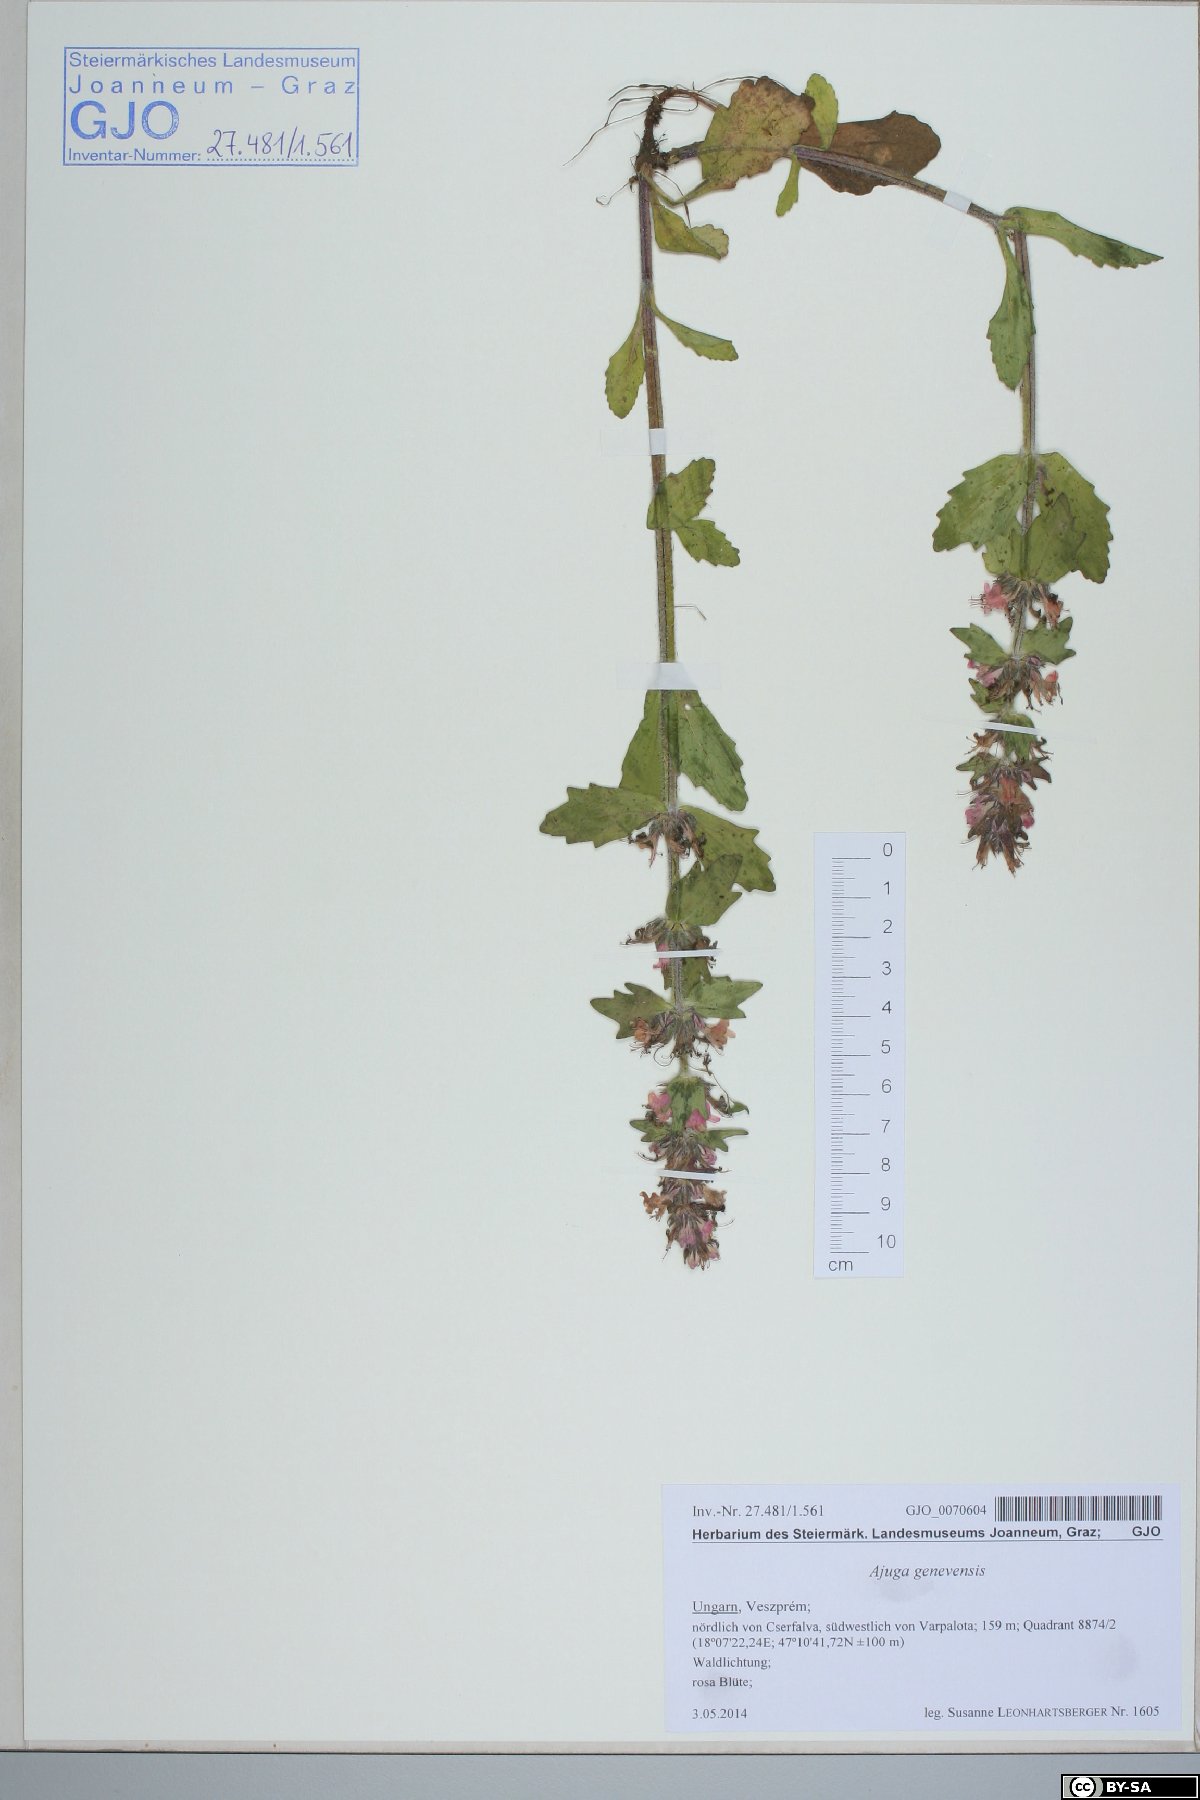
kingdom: Plantae
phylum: Tracheophyta
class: Magnoliopsida
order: Lamiales
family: Lamiaceae
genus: Ajuga
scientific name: Ajuga genevensis
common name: Blue bugle
